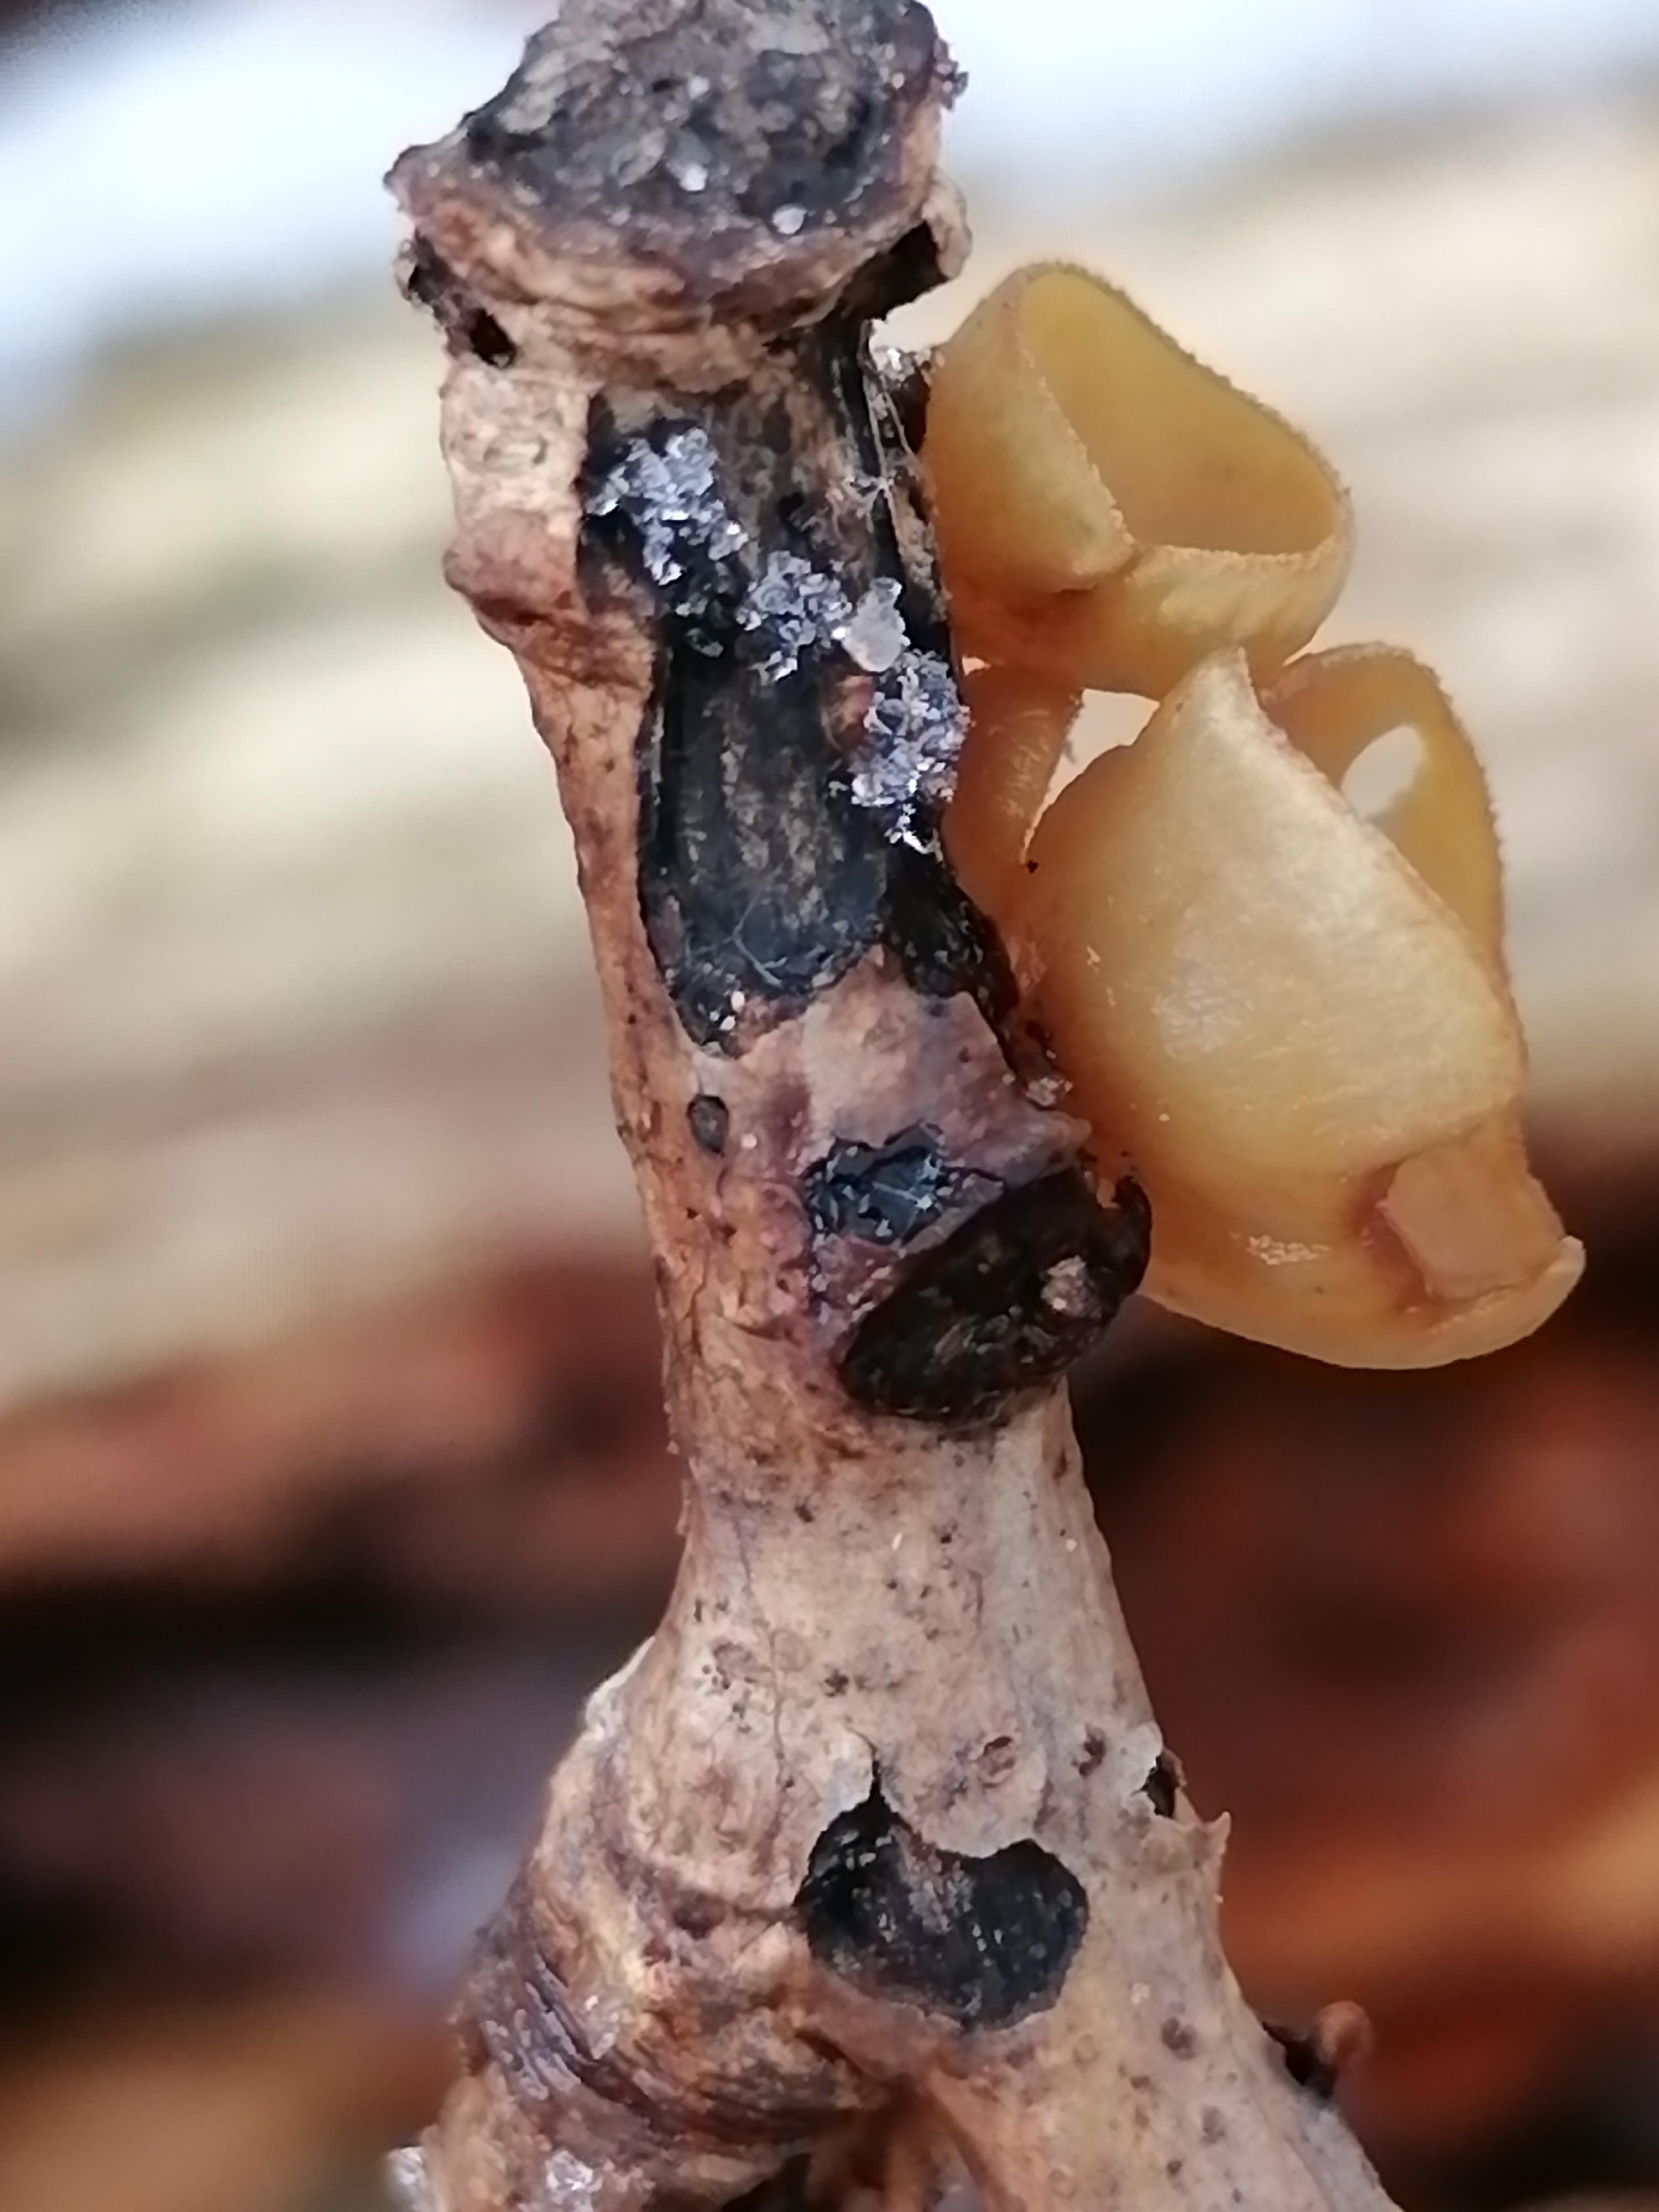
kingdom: Fungi
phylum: Ascomycota
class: Leotiomycetes
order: Helotiales
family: Rutstroemiaceae
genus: Rutstroemia
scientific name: Rutstroemia firma
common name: gren-brunskive
